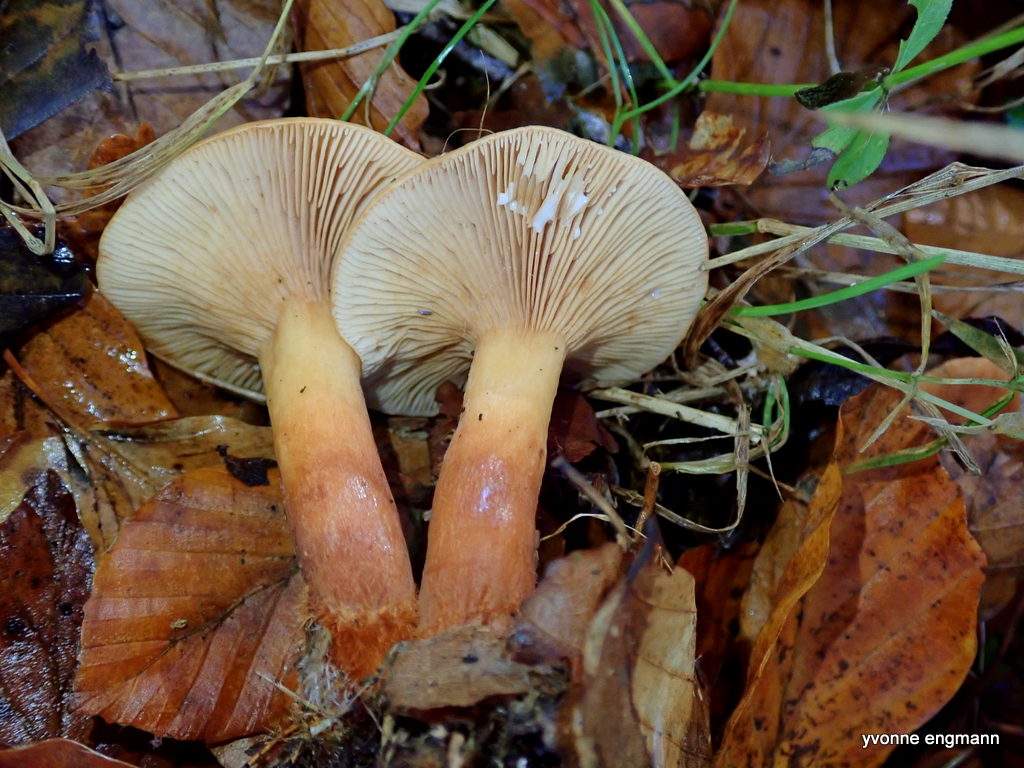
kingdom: Fungi
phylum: Basidiomycota
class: Agaricomycetes
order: Russulales
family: Russulaceae
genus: Lactarius
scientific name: Lactarius subdulcis
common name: sødlig mælkehat
